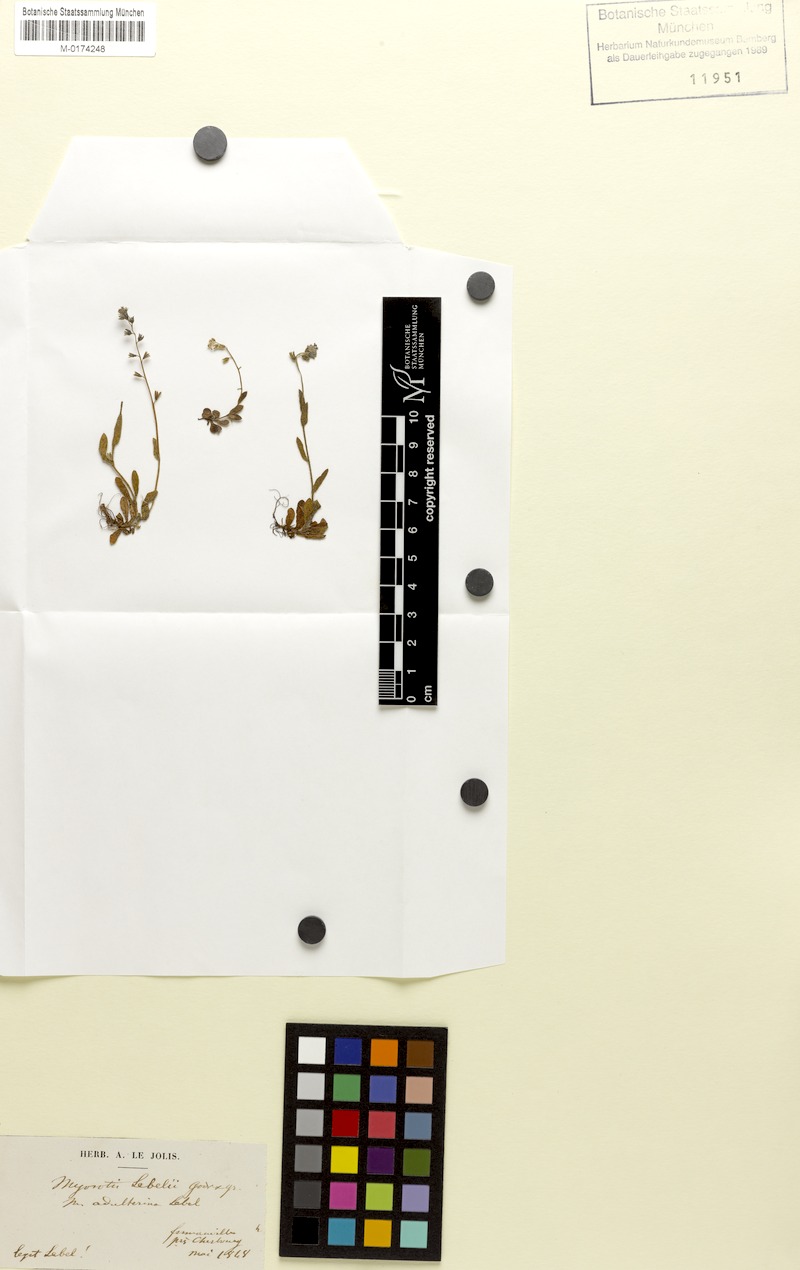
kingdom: Plantae
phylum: Tracheophyta
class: Magnoliopsida
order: Boraginales
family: Boraginaceae
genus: Myosotis
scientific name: Myosotis ramosissima
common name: Early forget-me-not
